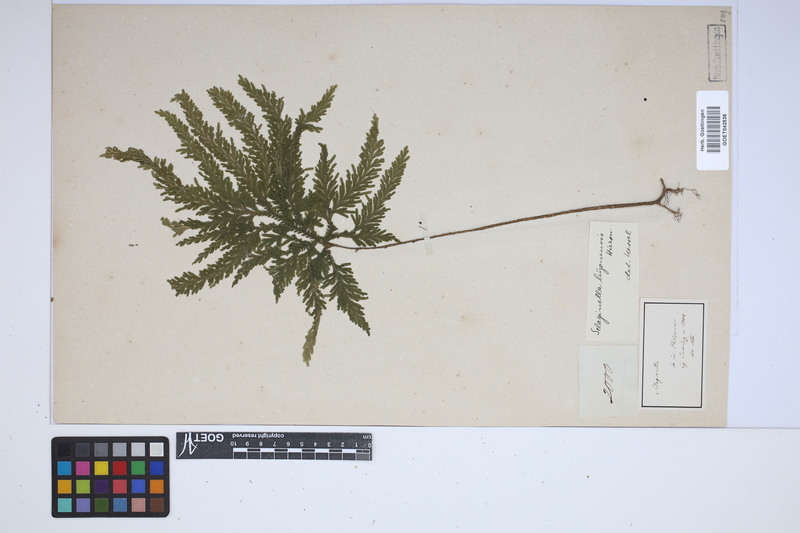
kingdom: Plantae
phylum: Tracheophyta
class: Lycopodiopsida
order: Selaginellales
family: Selaginellaceae
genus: Selaginella
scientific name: Selaginella luzonensis
